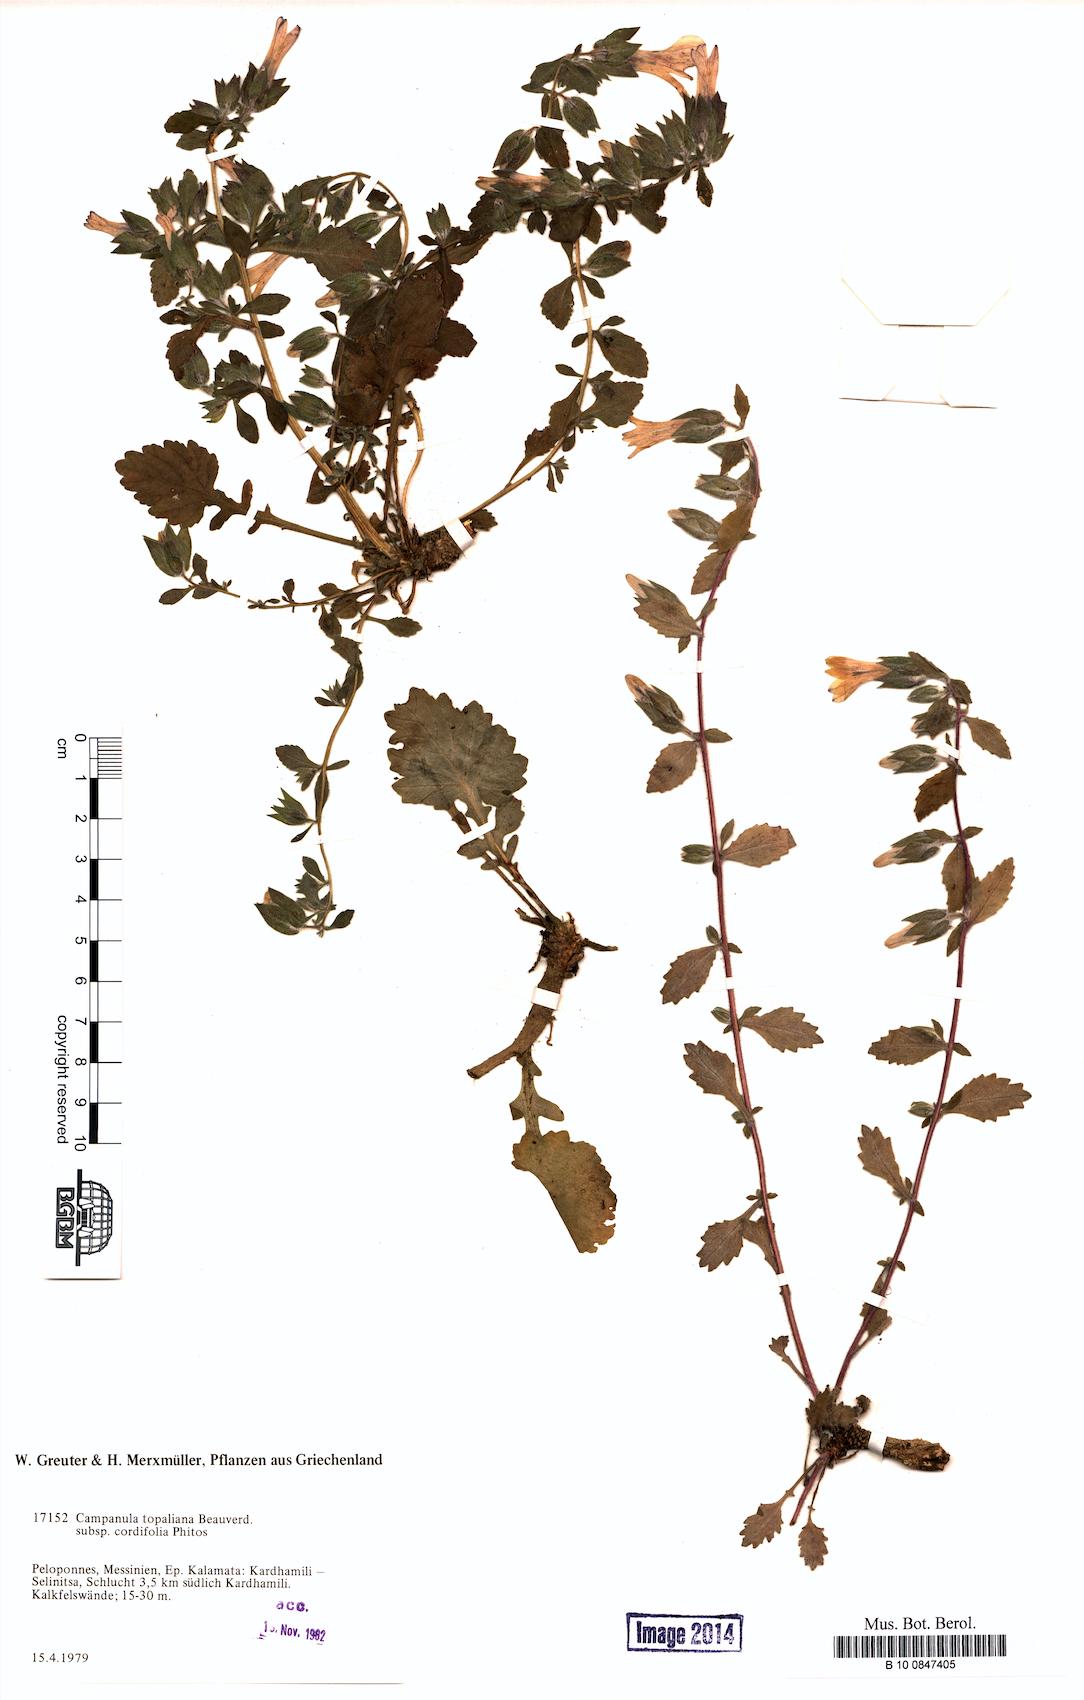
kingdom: Plantae
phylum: Tracheophyta
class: Magnoliopsida
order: Asterales
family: Campanulaceae
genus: Campanula
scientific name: Campanula topaliana
